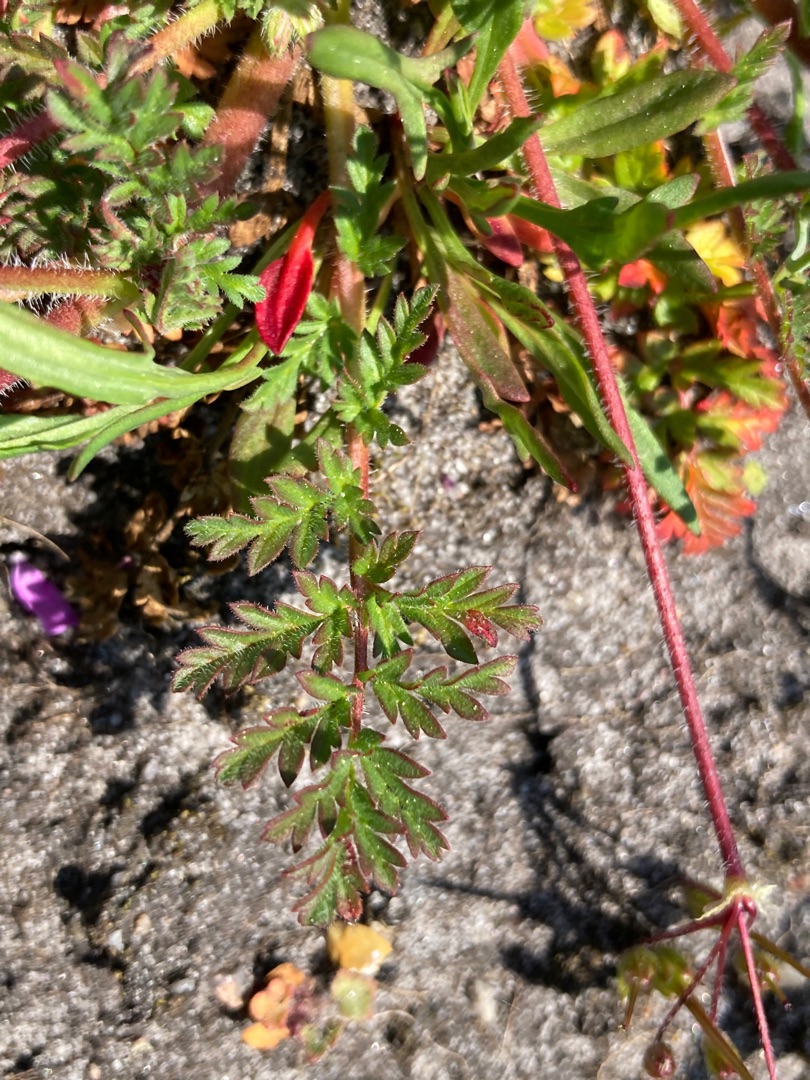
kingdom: Plantae
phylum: Tracheophyta
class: Magnoliopsida
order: Geraniales
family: Geraniaceae
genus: Erodium
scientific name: Erodium cicutarium
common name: Hejrenæb
